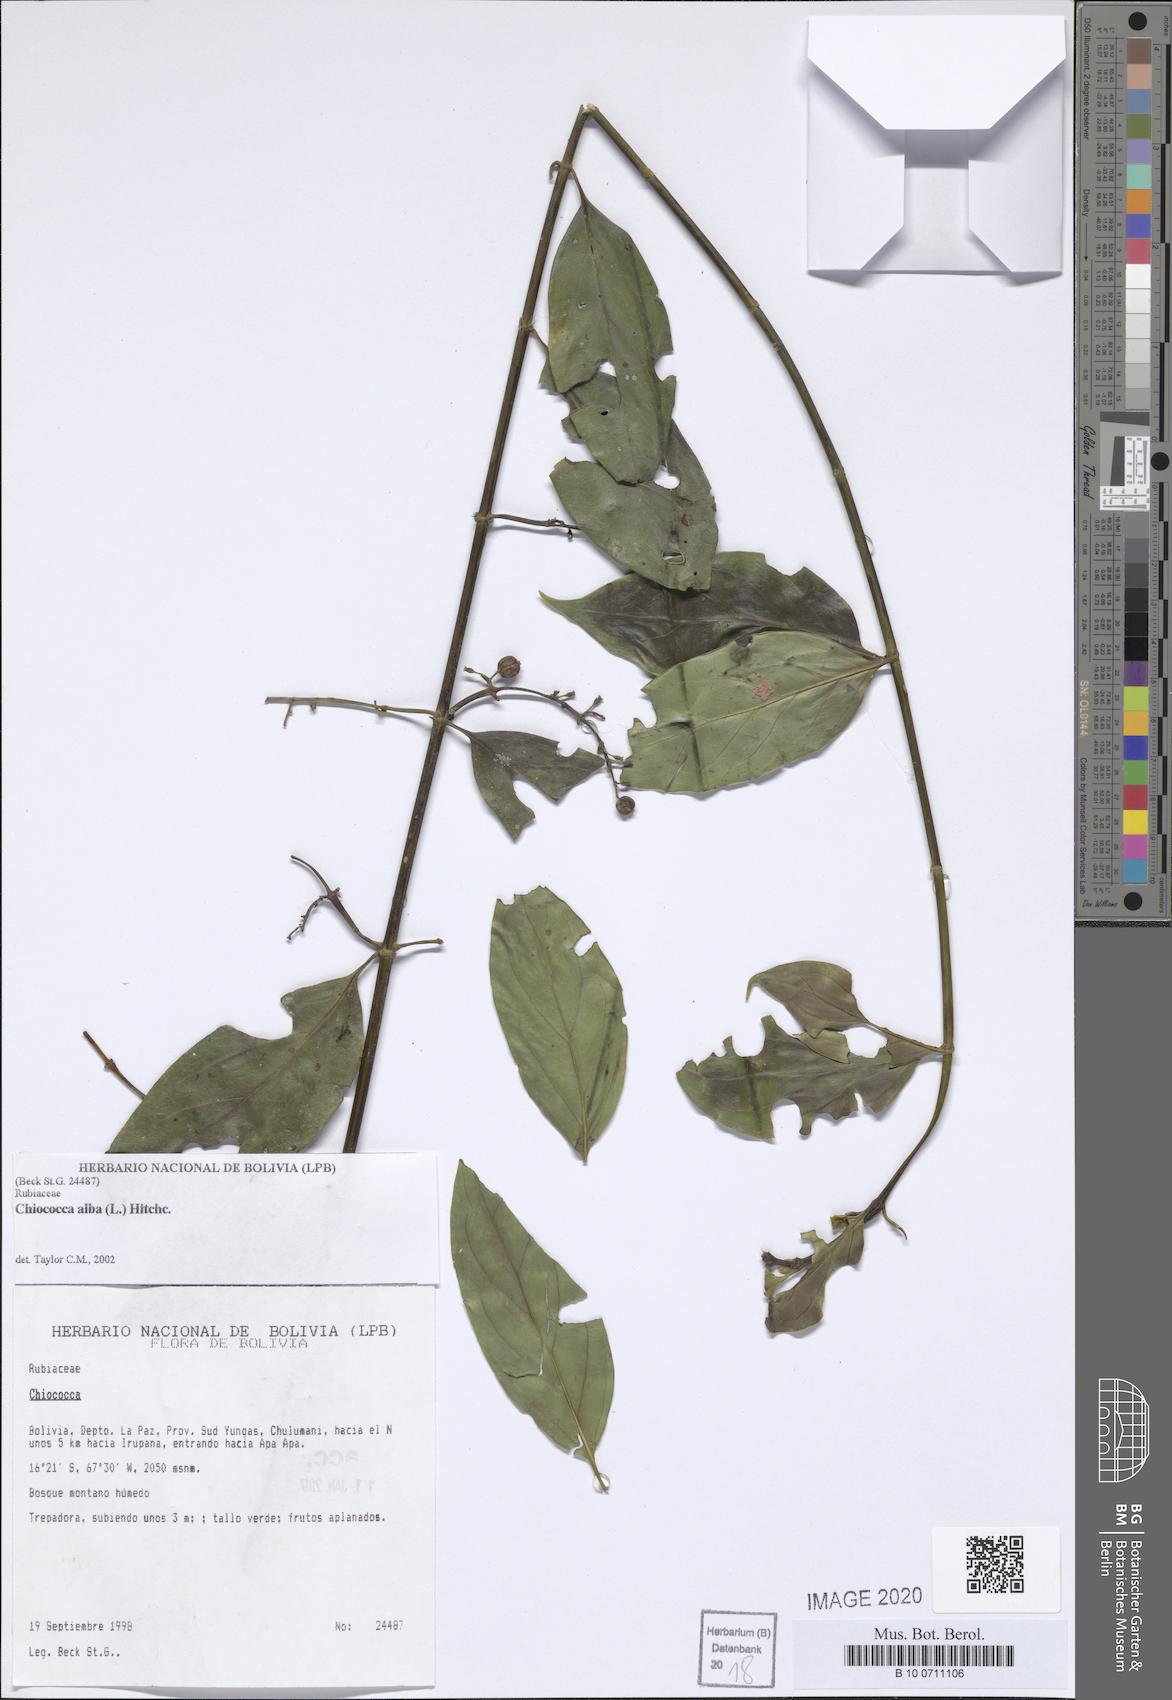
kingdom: Plantae
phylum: Tracheophyta
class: Magnoliopsida
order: Gentianales
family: Rubiaceae
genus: Chiococca
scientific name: Chiococca alba
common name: Snowberry
